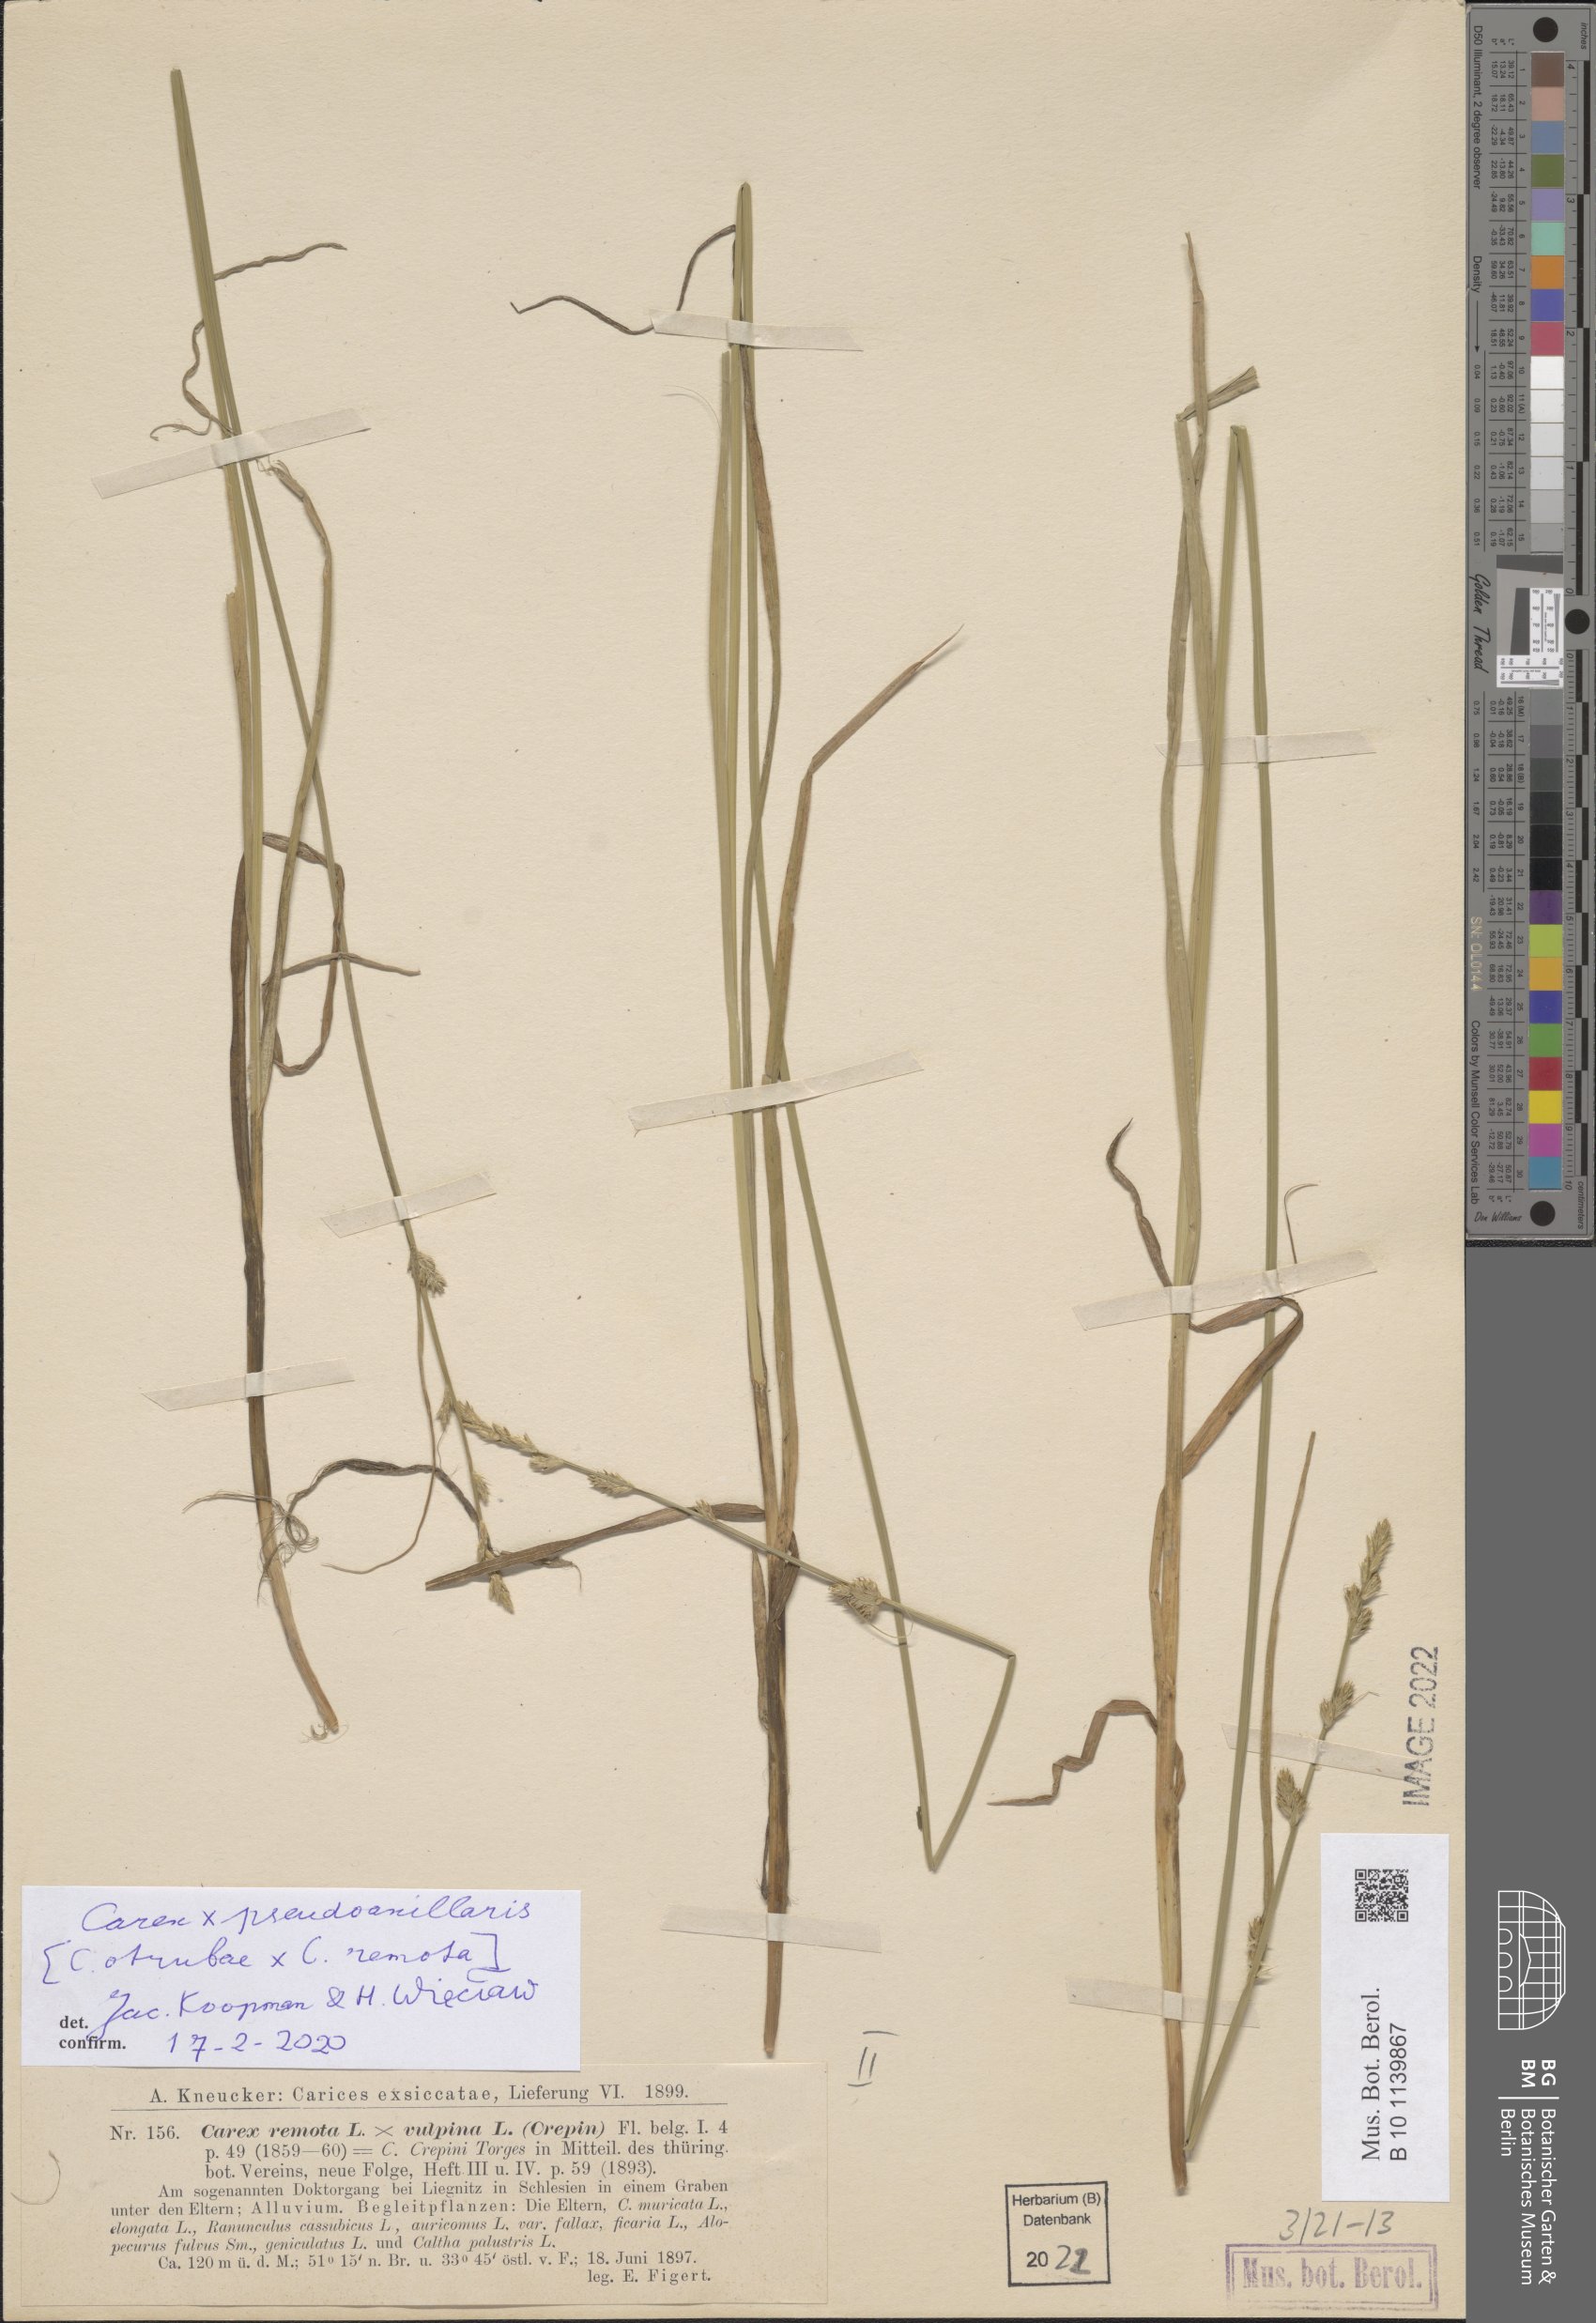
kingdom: Plantae
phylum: Tracheophyta
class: Liliopsida
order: Poales
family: Cyperaceae
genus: Carex
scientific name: Carex pseudoaxillaris
